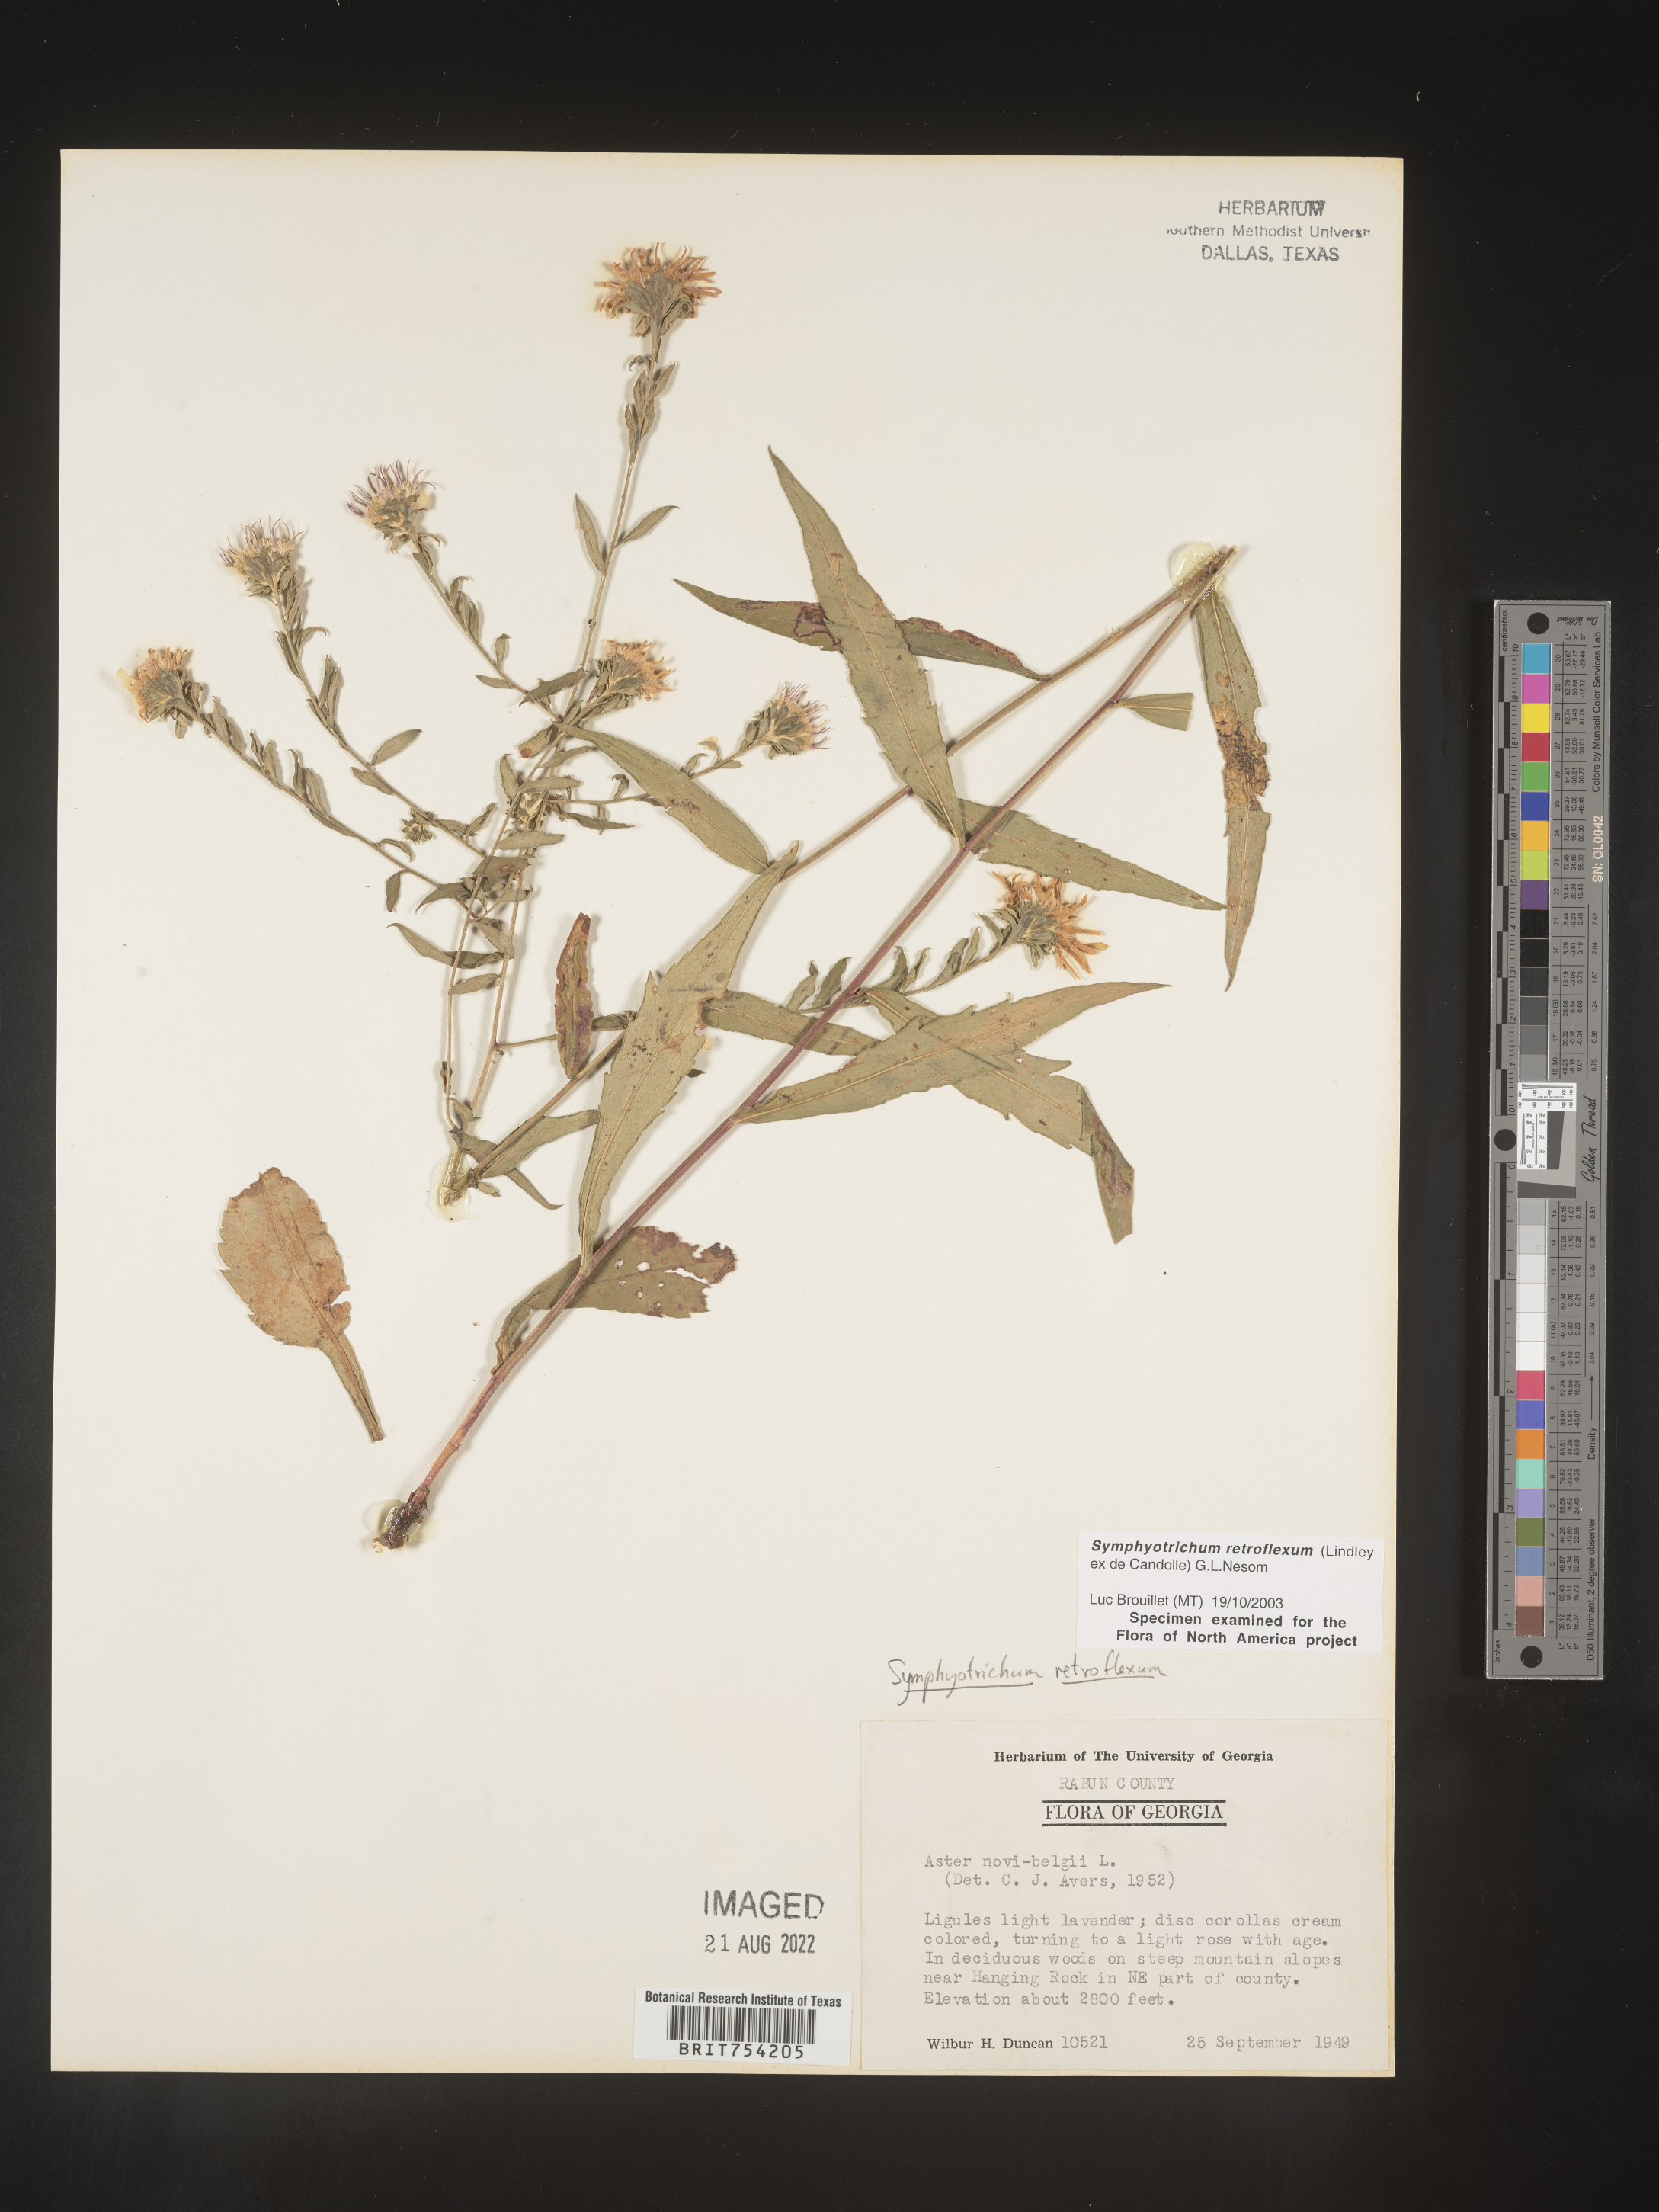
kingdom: Plantae
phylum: Tracheophyta
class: Magnoliopsida
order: Asterales
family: Asteraceae
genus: Symphyotrichum
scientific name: Symphyotrichum retroflexum
